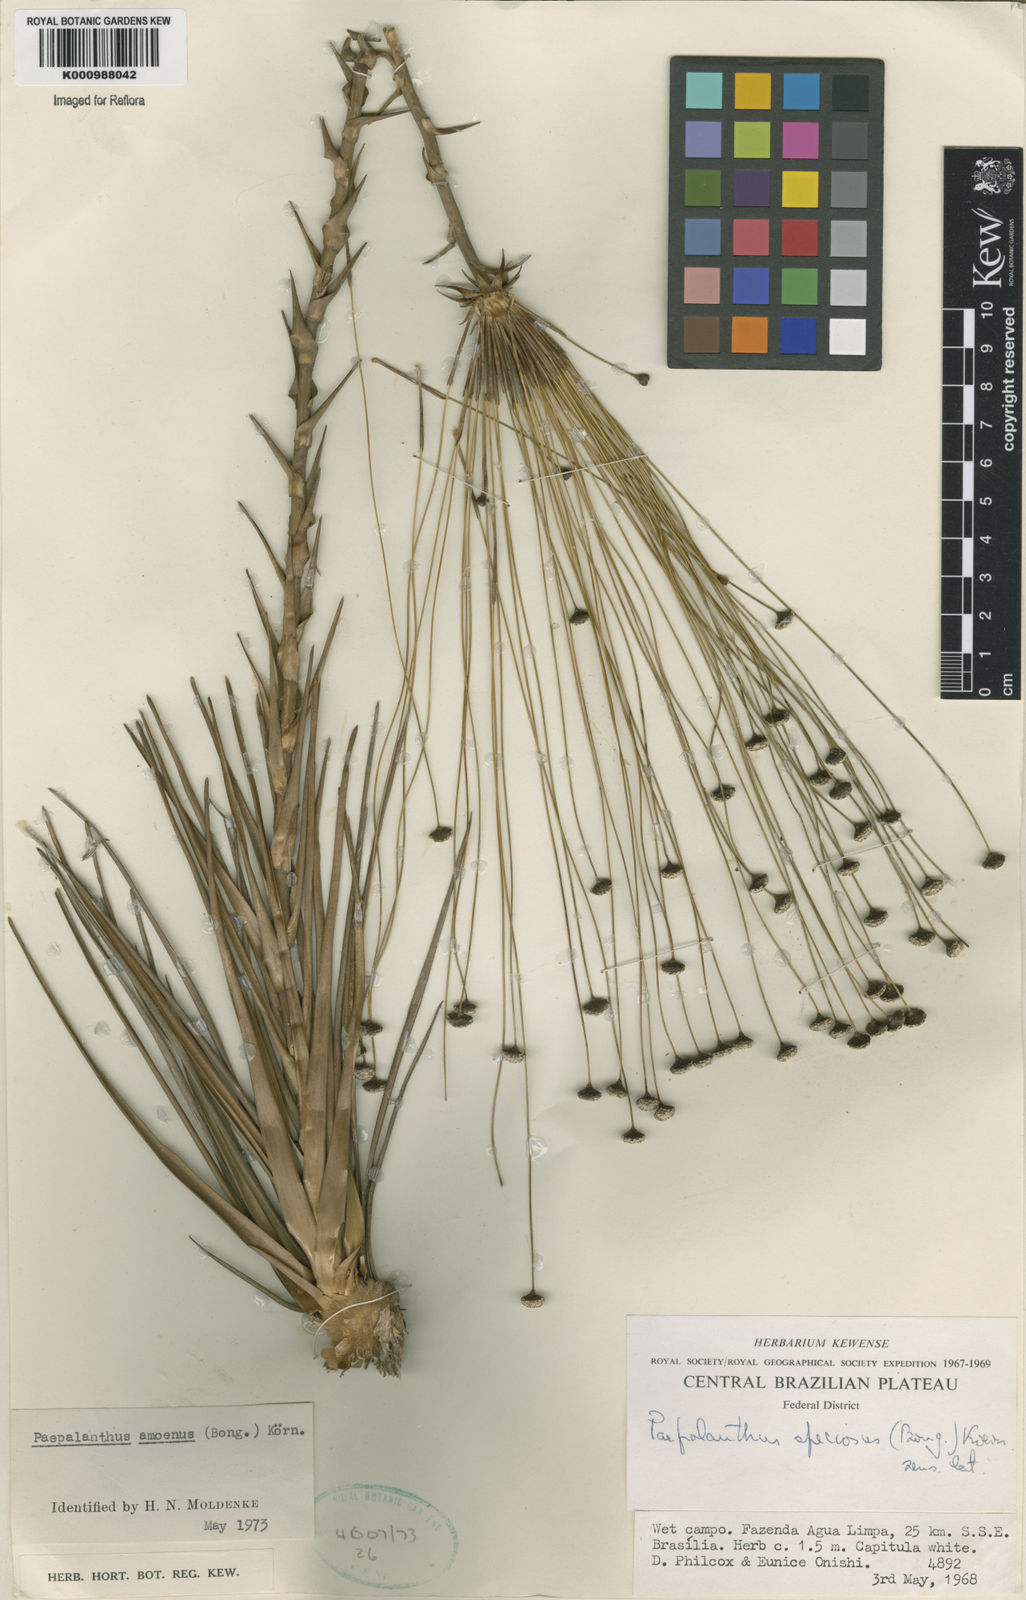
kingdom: Plantae
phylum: Tracheophyta
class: Liliopsida
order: Poales
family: Eriocaulaceae
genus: Paepalanthus
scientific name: Paepalanthus
